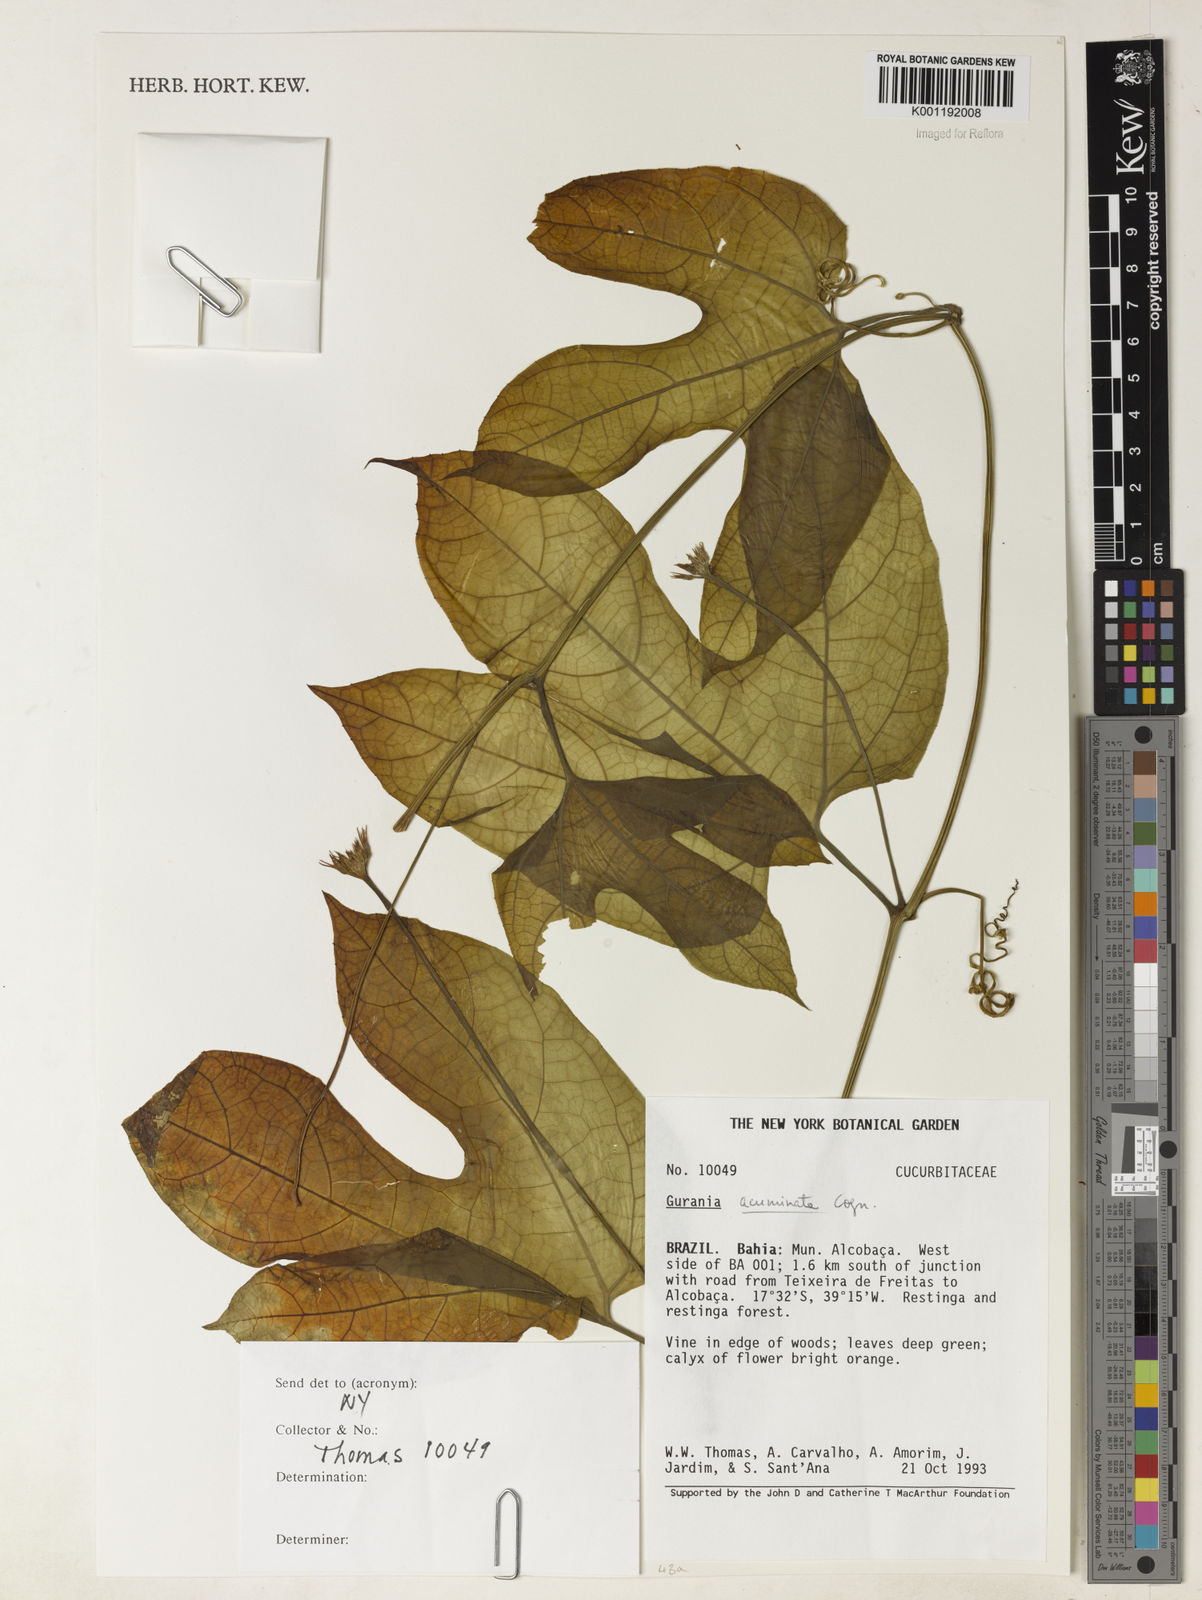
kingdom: Plantae
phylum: Tracheophyta
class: Magnoliopsida
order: Cucurbitales
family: Cucurbitaceae
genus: Gurania
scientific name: Gurania acuminata
